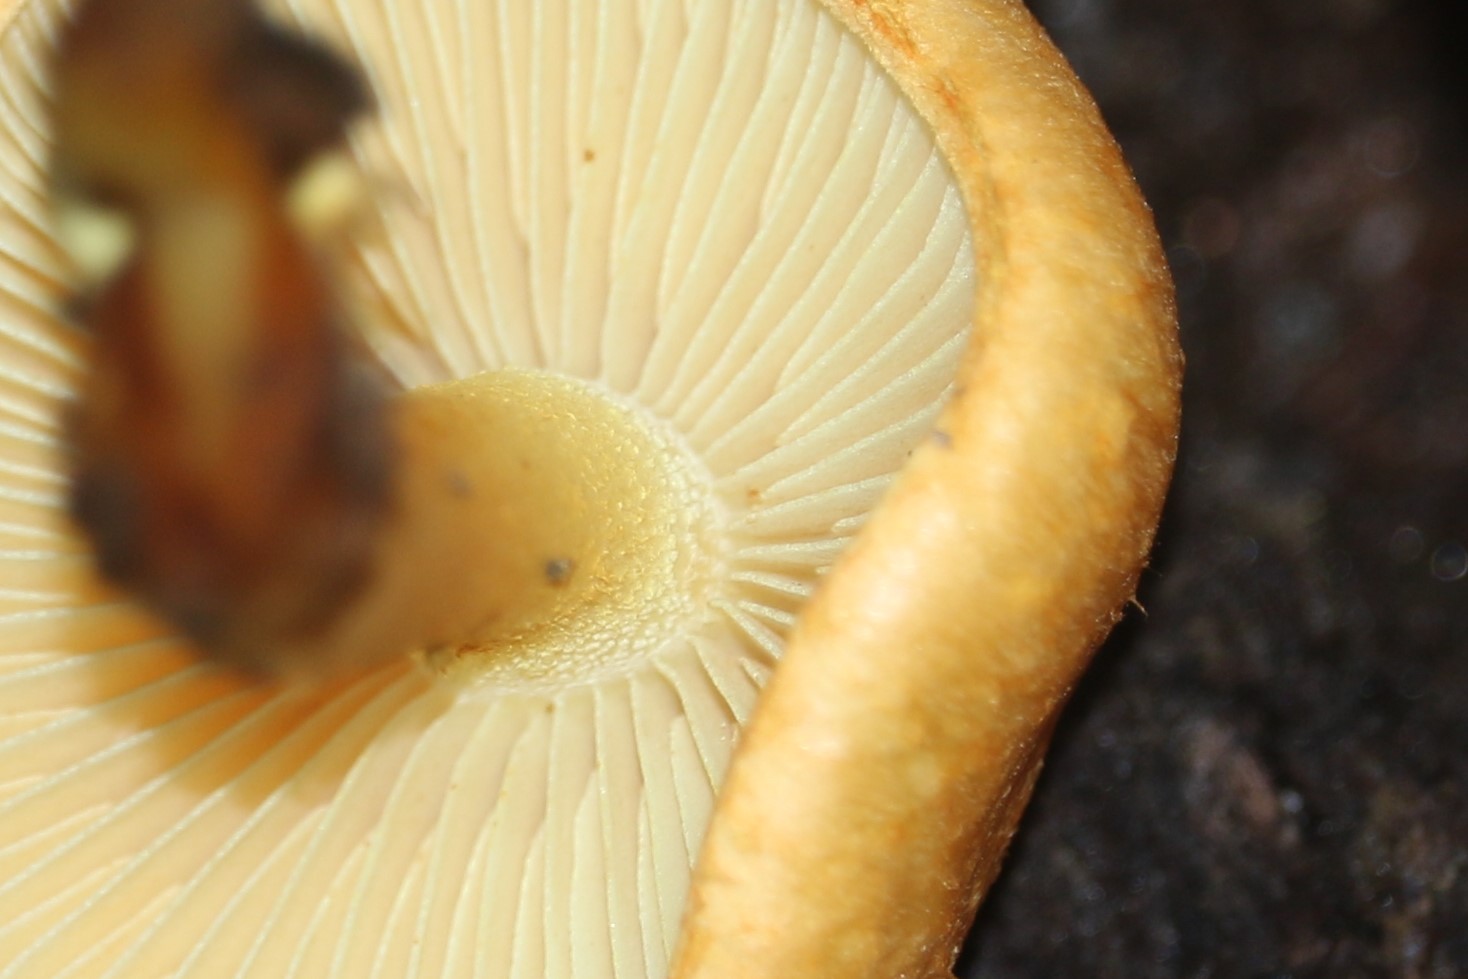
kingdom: Fungi
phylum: Basidiomycota
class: Agaricomycetes
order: Agaricales
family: Strophariaceae
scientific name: Strophariaceae
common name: bredbladfamilien
